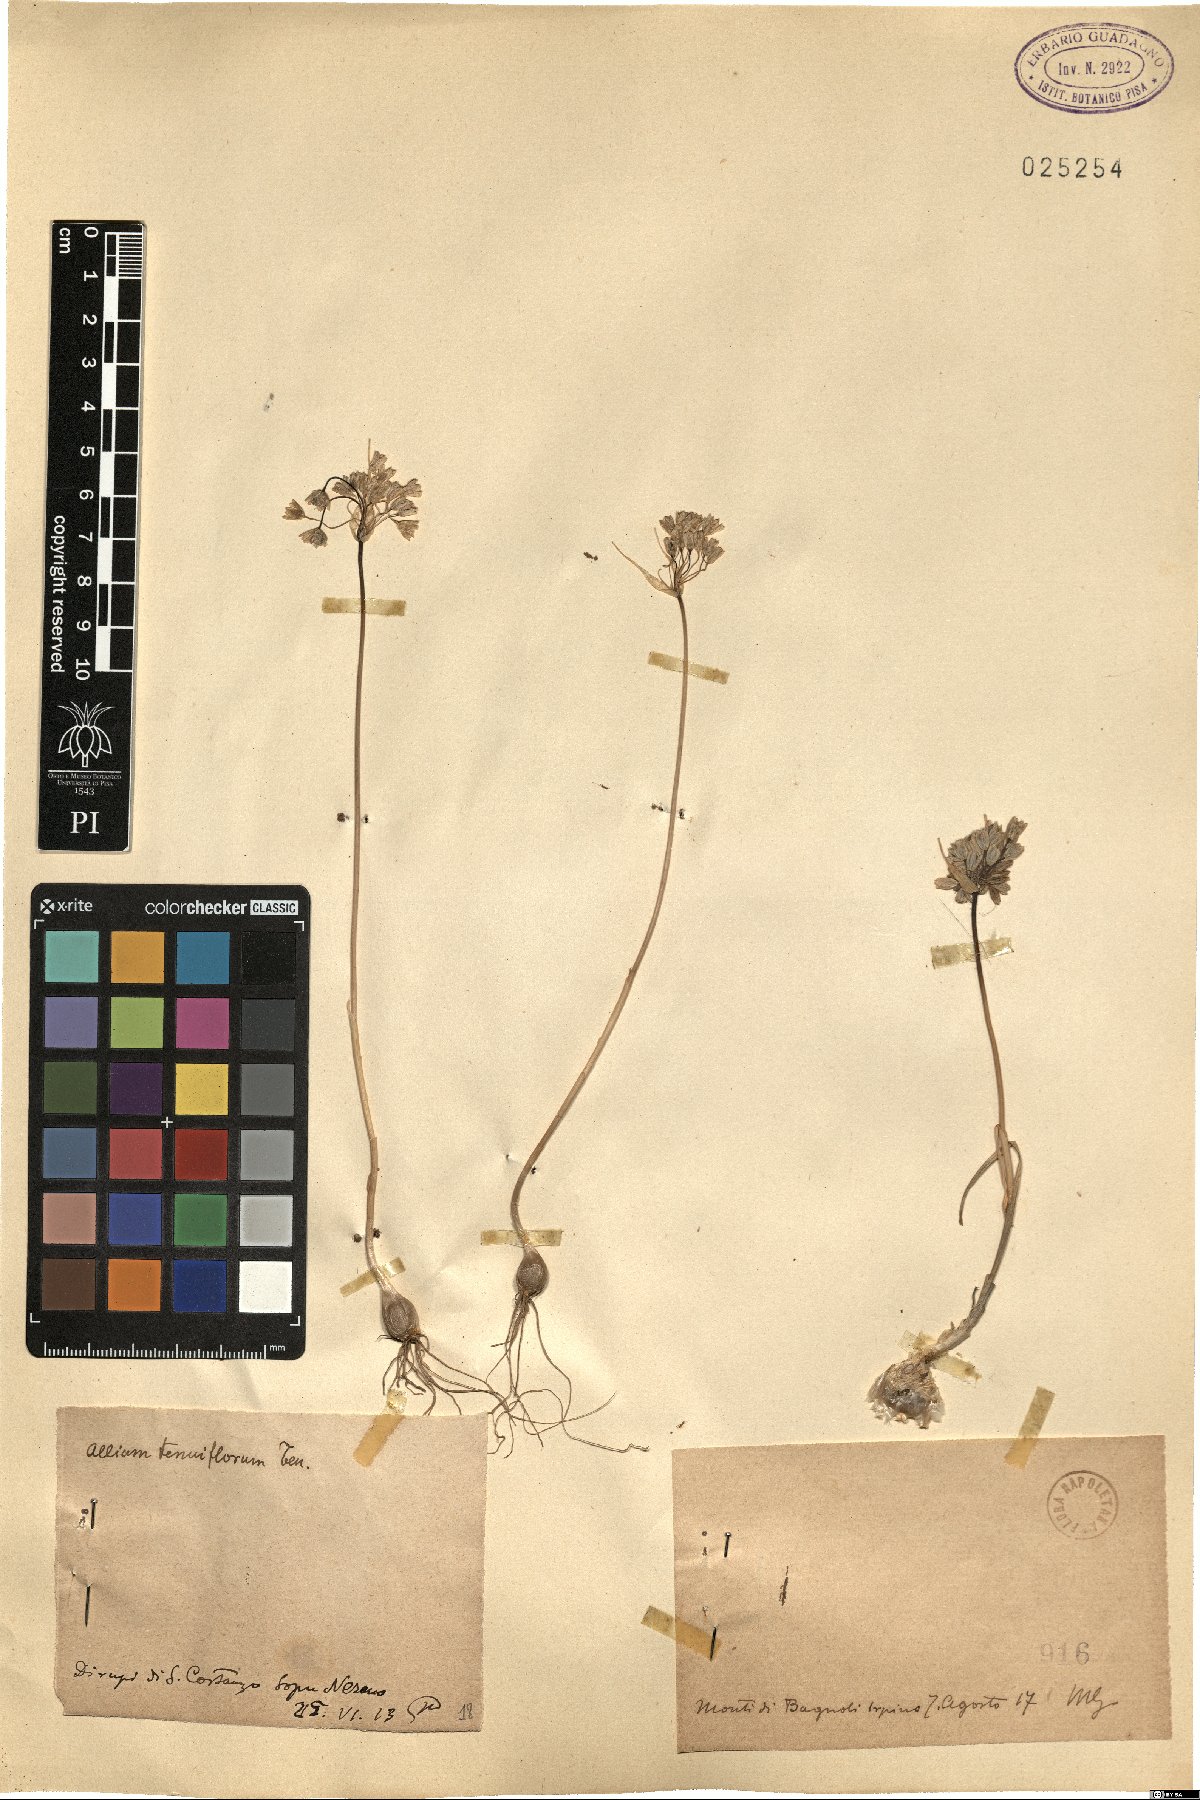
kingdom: Plantae
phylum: Tracheophyta
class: Liliopsida
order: Asparagales
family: Amaryllidaceae
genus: Allium
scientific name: Allium tenuiflorum
